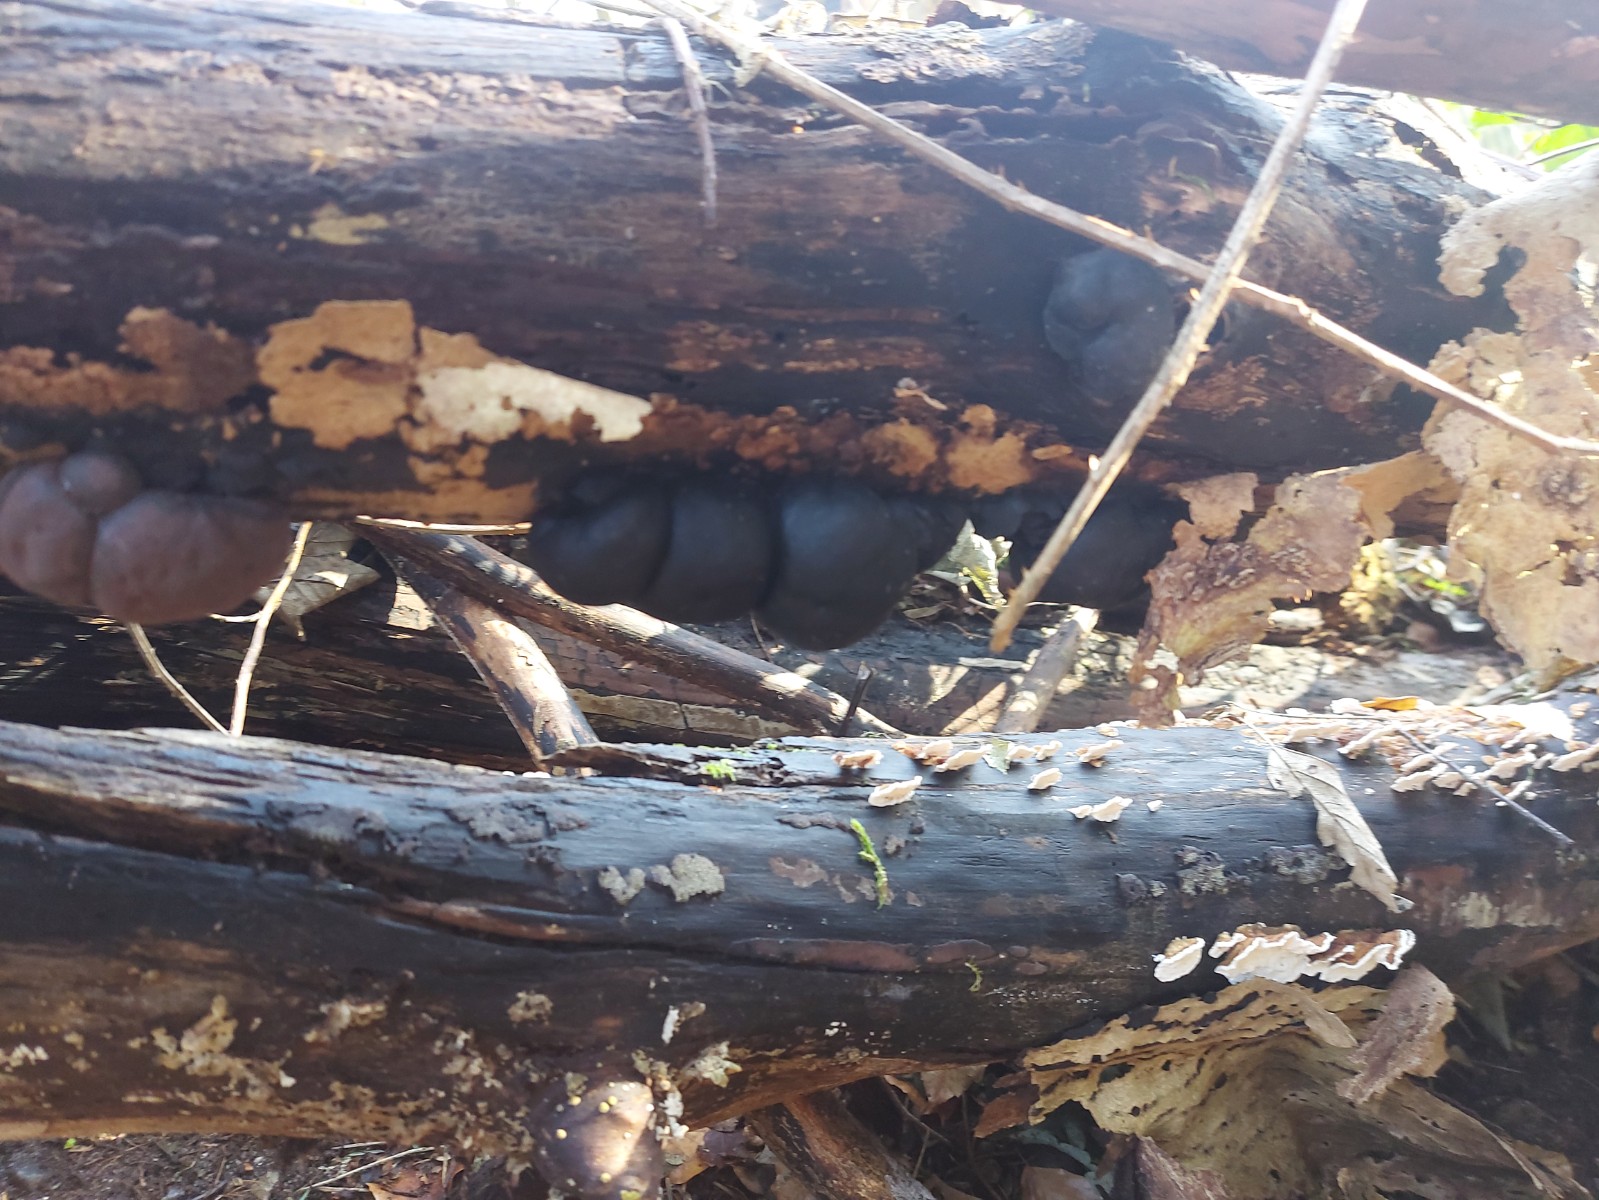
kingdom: Fungi
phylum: Ascomycota
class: Sordariomycetes
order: Xylariales
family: Hypoxylaceae
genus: Daldinia
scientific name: Daldinia concentrica
